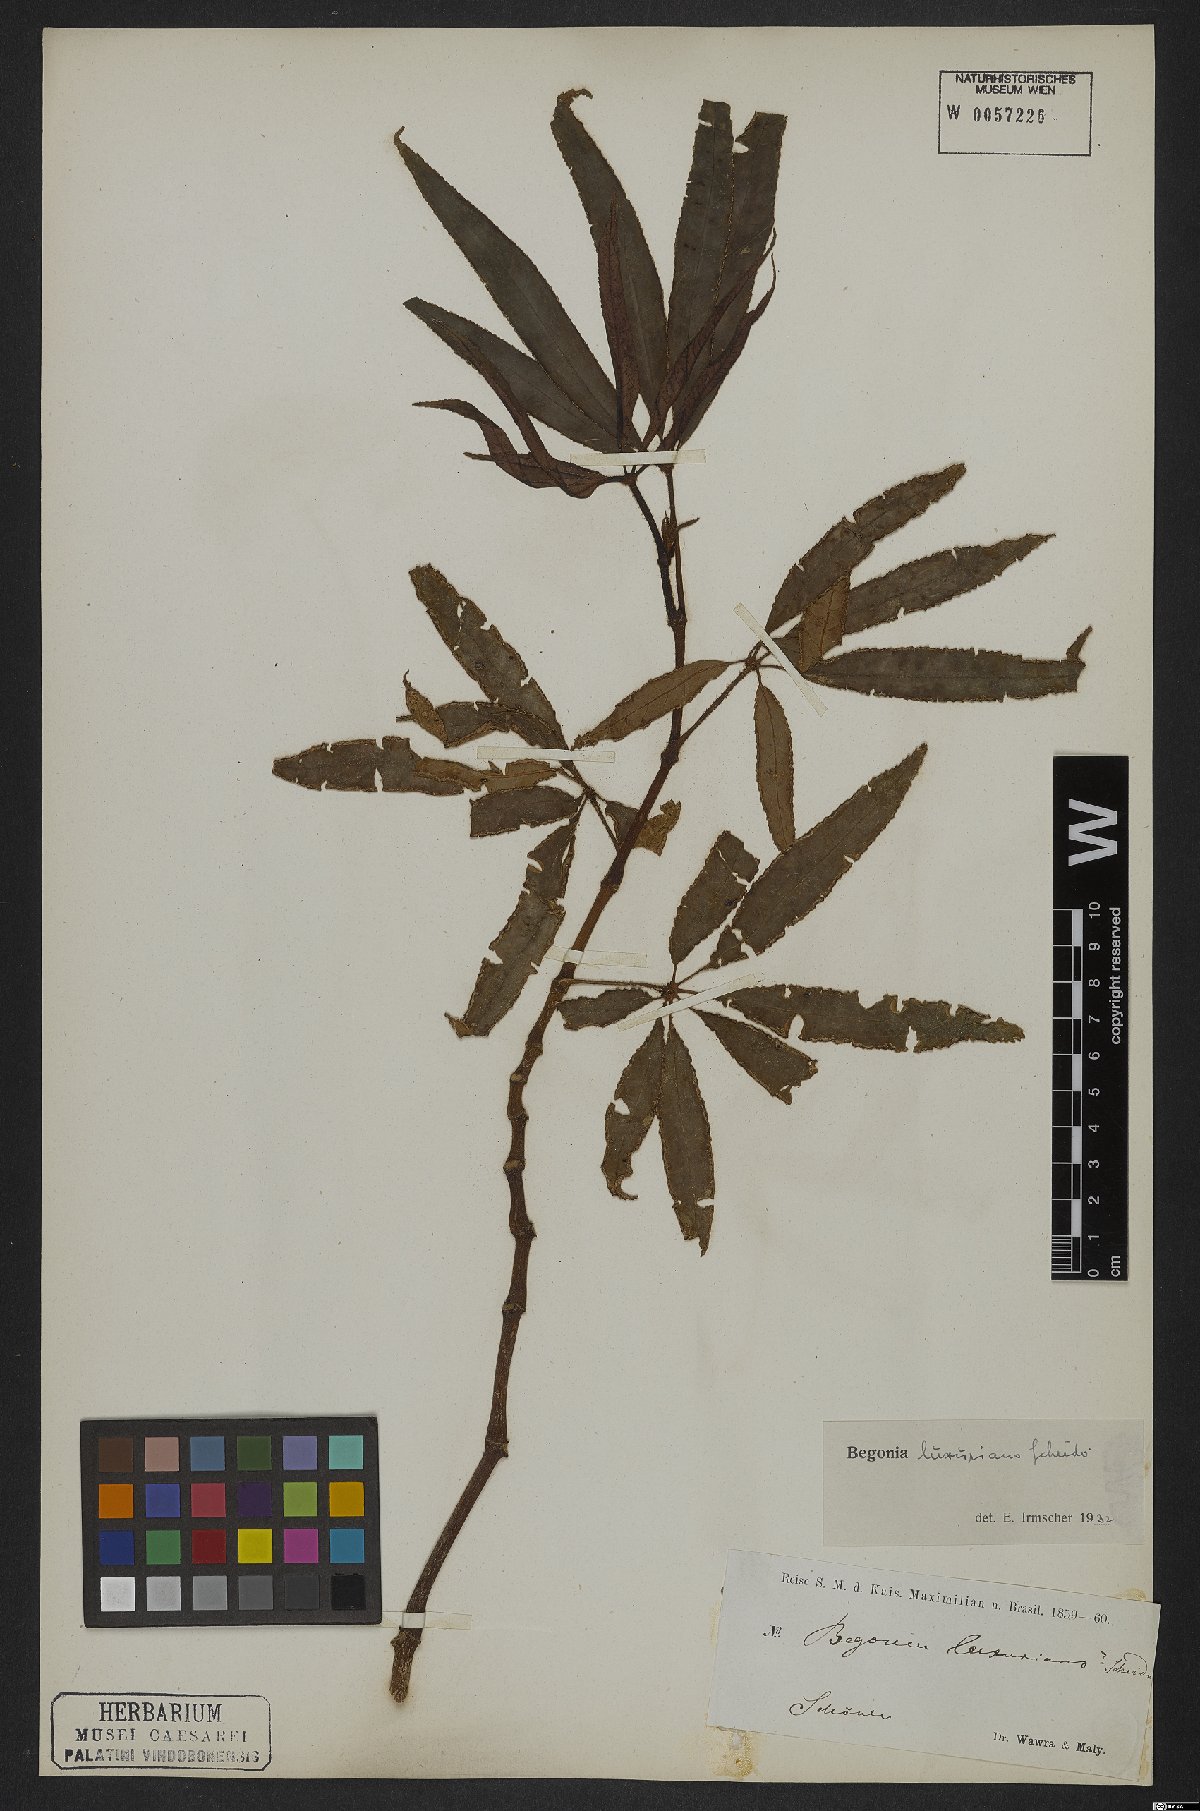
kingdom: Plantae
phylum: Tracheophyta
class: Magnoliopsida
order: Cucurbitales
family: Begoniaceae
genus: Begonia
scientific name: Begonia luxurians
